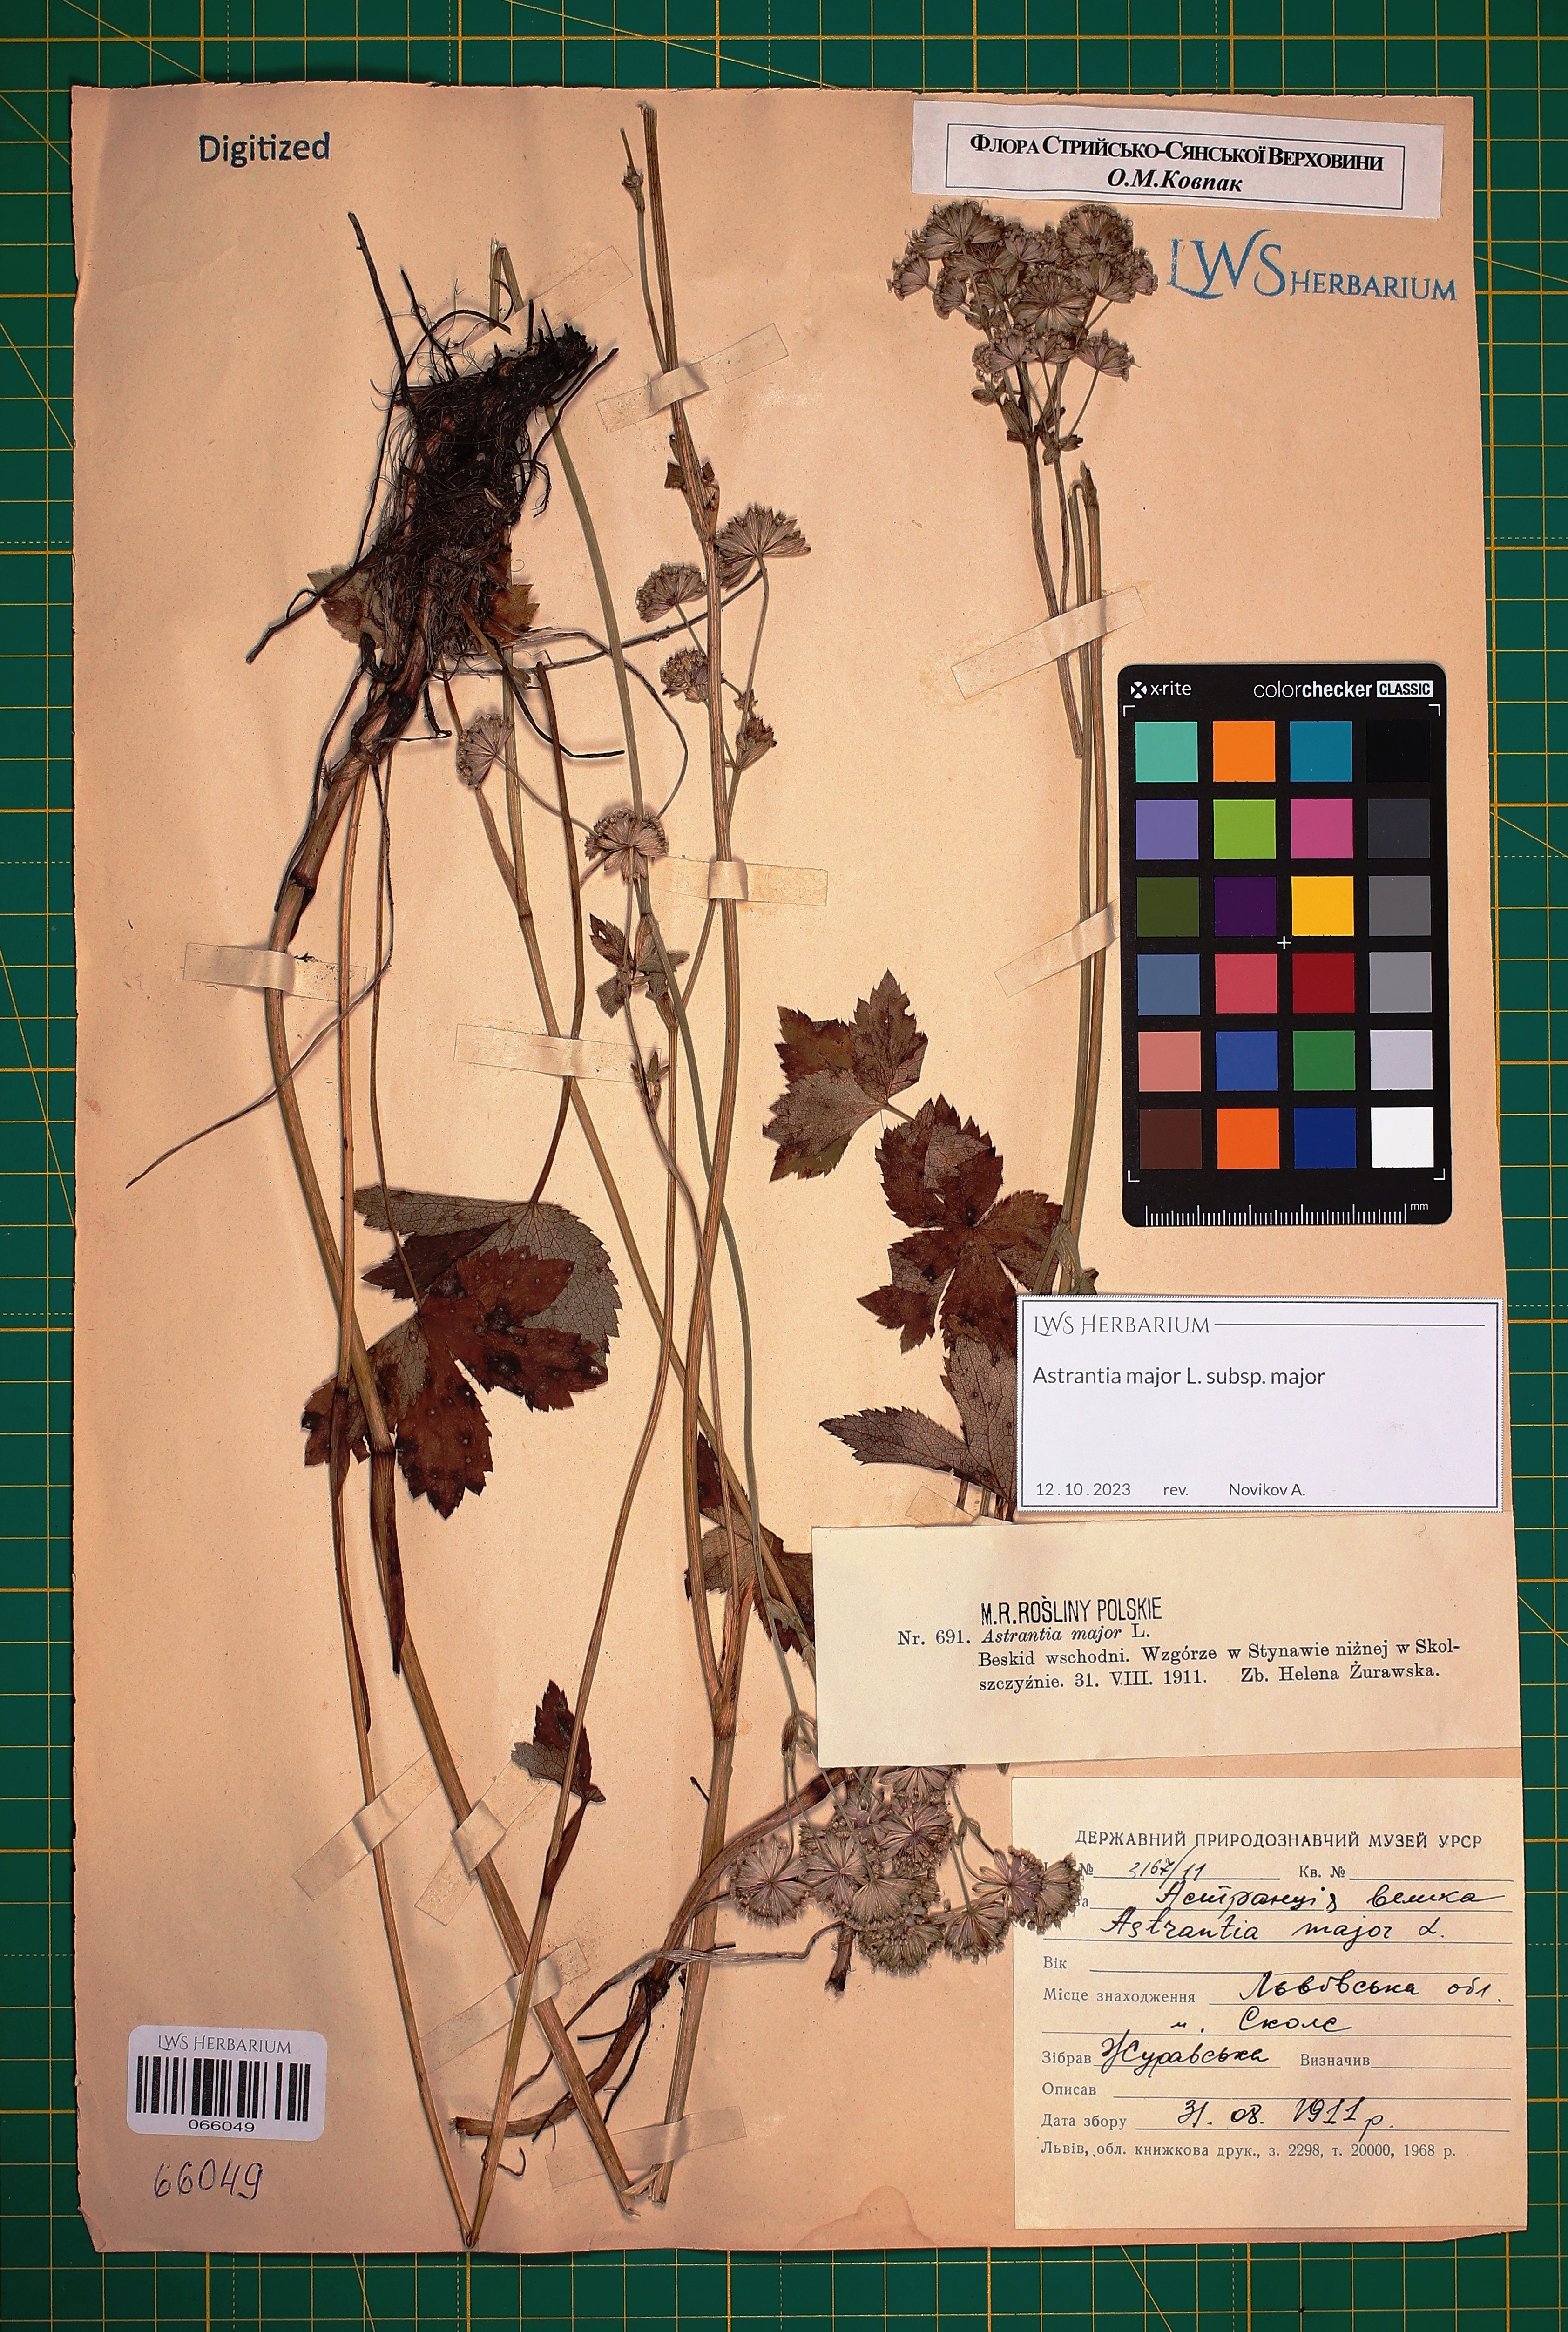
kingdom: Plantae
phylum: Tracheophyta
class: Magnoliopsida
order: Apiales
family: Apiaceae
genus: Astrantia
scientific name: Astrantia major
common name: Greater masterwort
